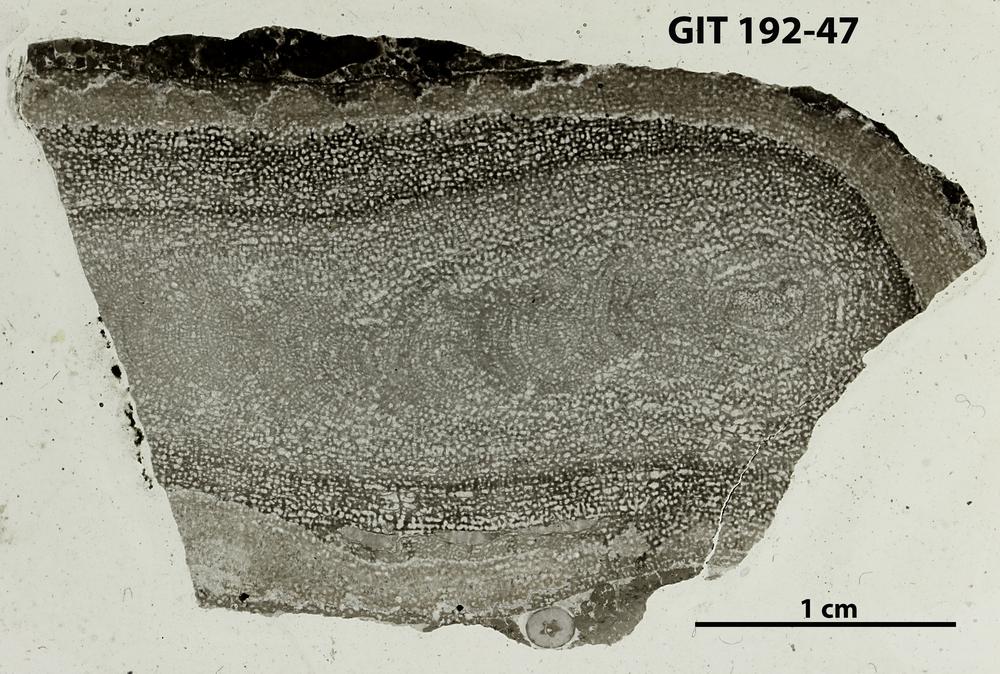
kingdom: Animalia
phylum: Porifera
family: Pseudolabechiidae
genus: Vikingia
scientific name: Vikingia
